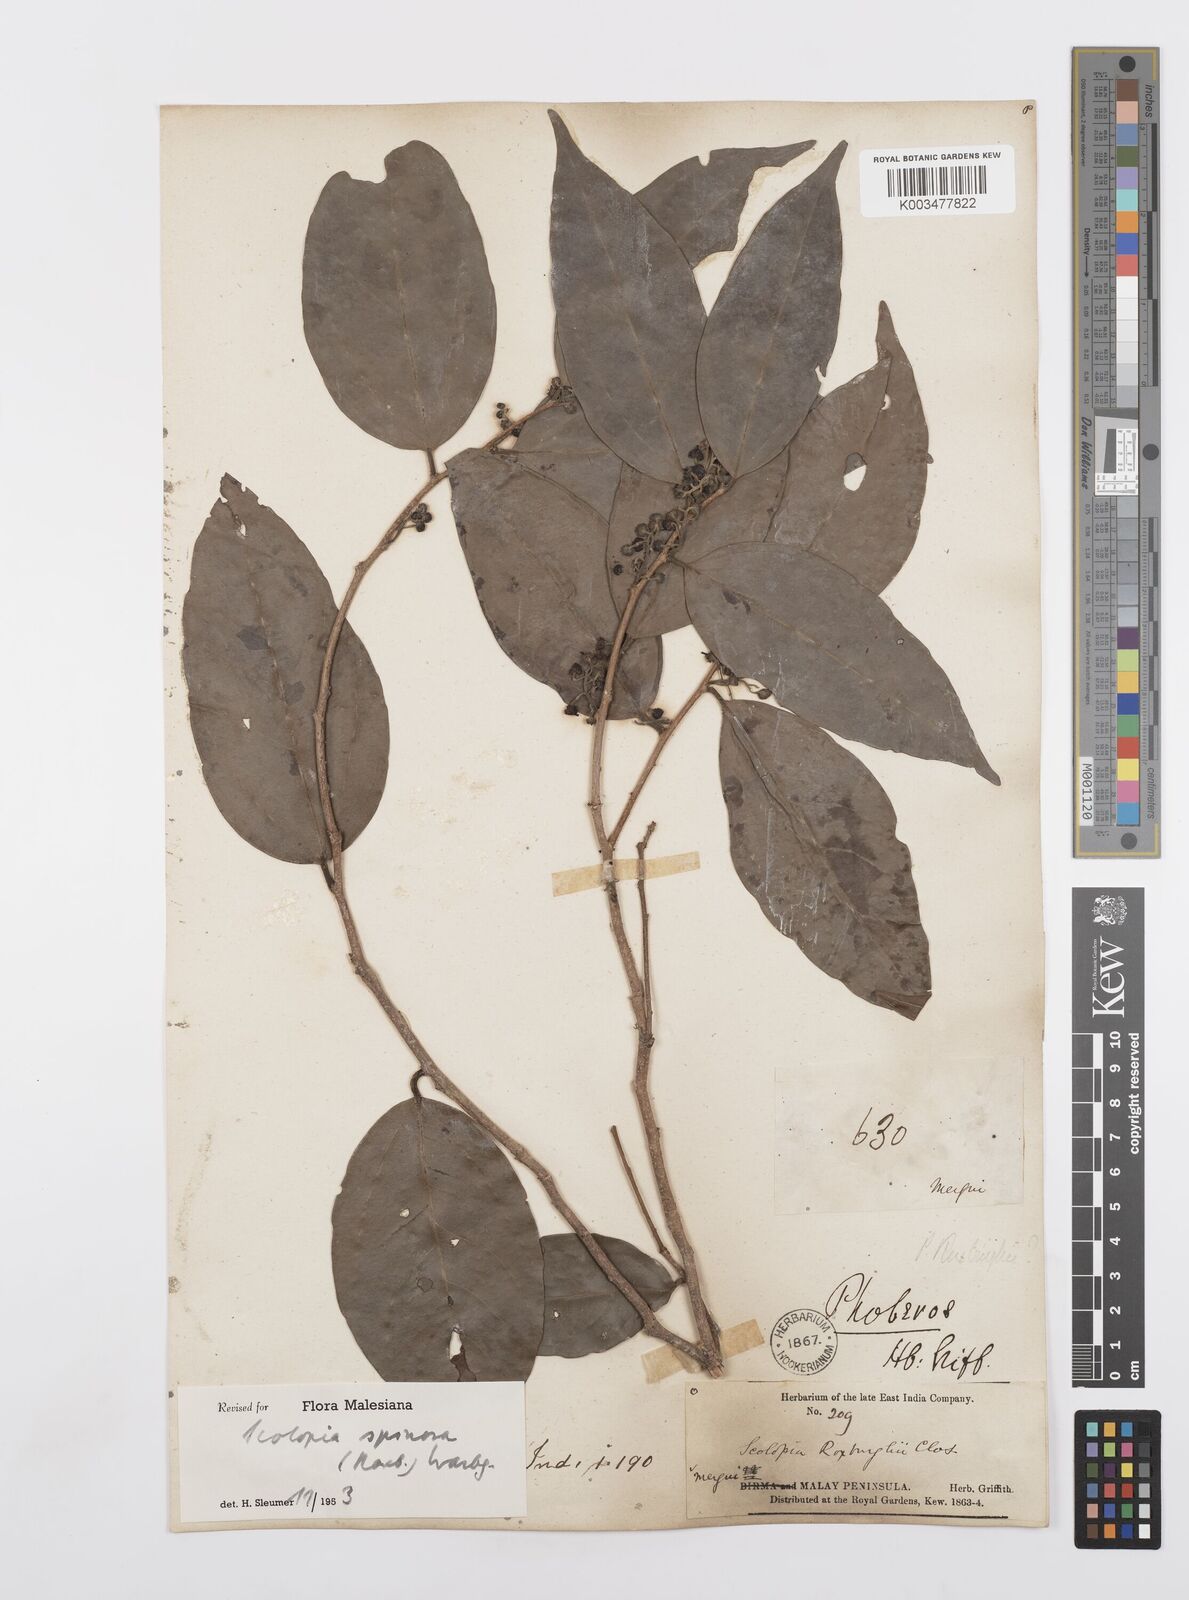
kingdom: Plantae
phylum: Tracheophyta
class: Magnoliopsida
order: Malpighiales
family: Salicaceae
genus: Scolopia
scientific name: Scolopia spinosa
